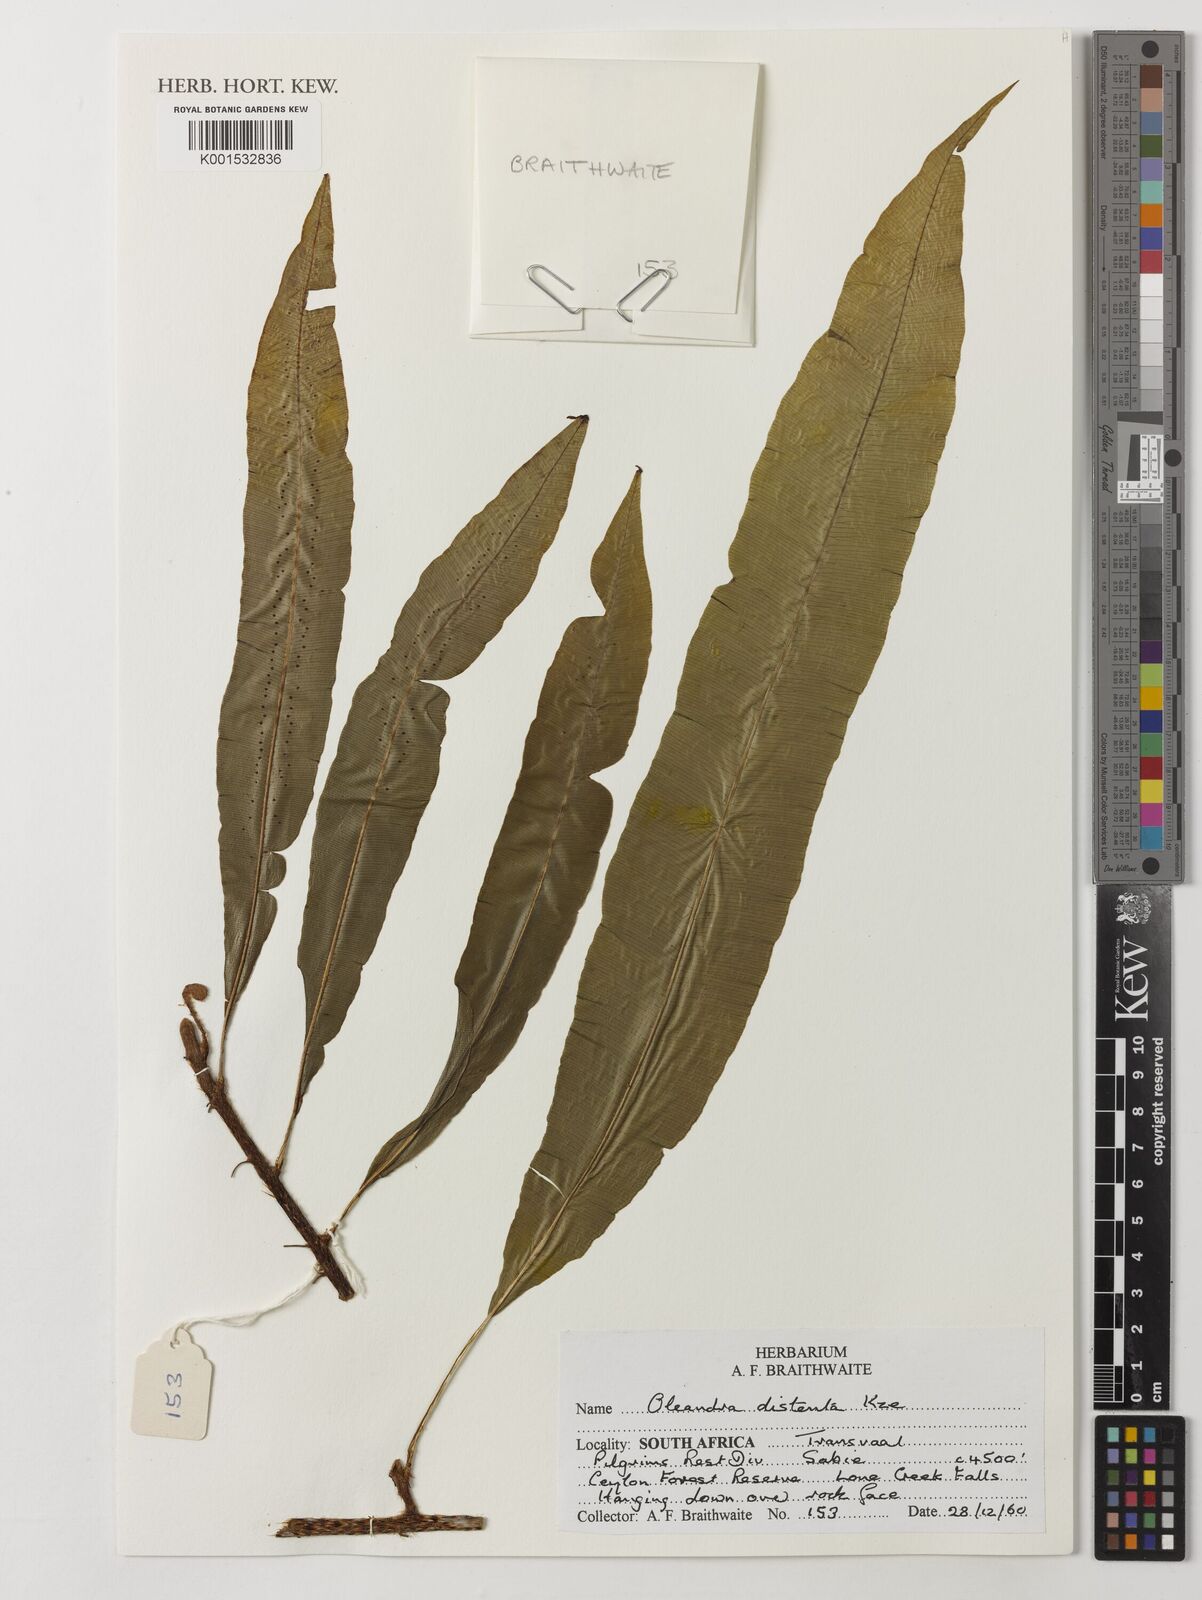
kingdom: Plantae
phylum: Tracheophyta
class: Polypodiopsida
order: Polypodiales
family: Oleandraceae
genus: Oleandra
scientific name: Oleandra distenta
